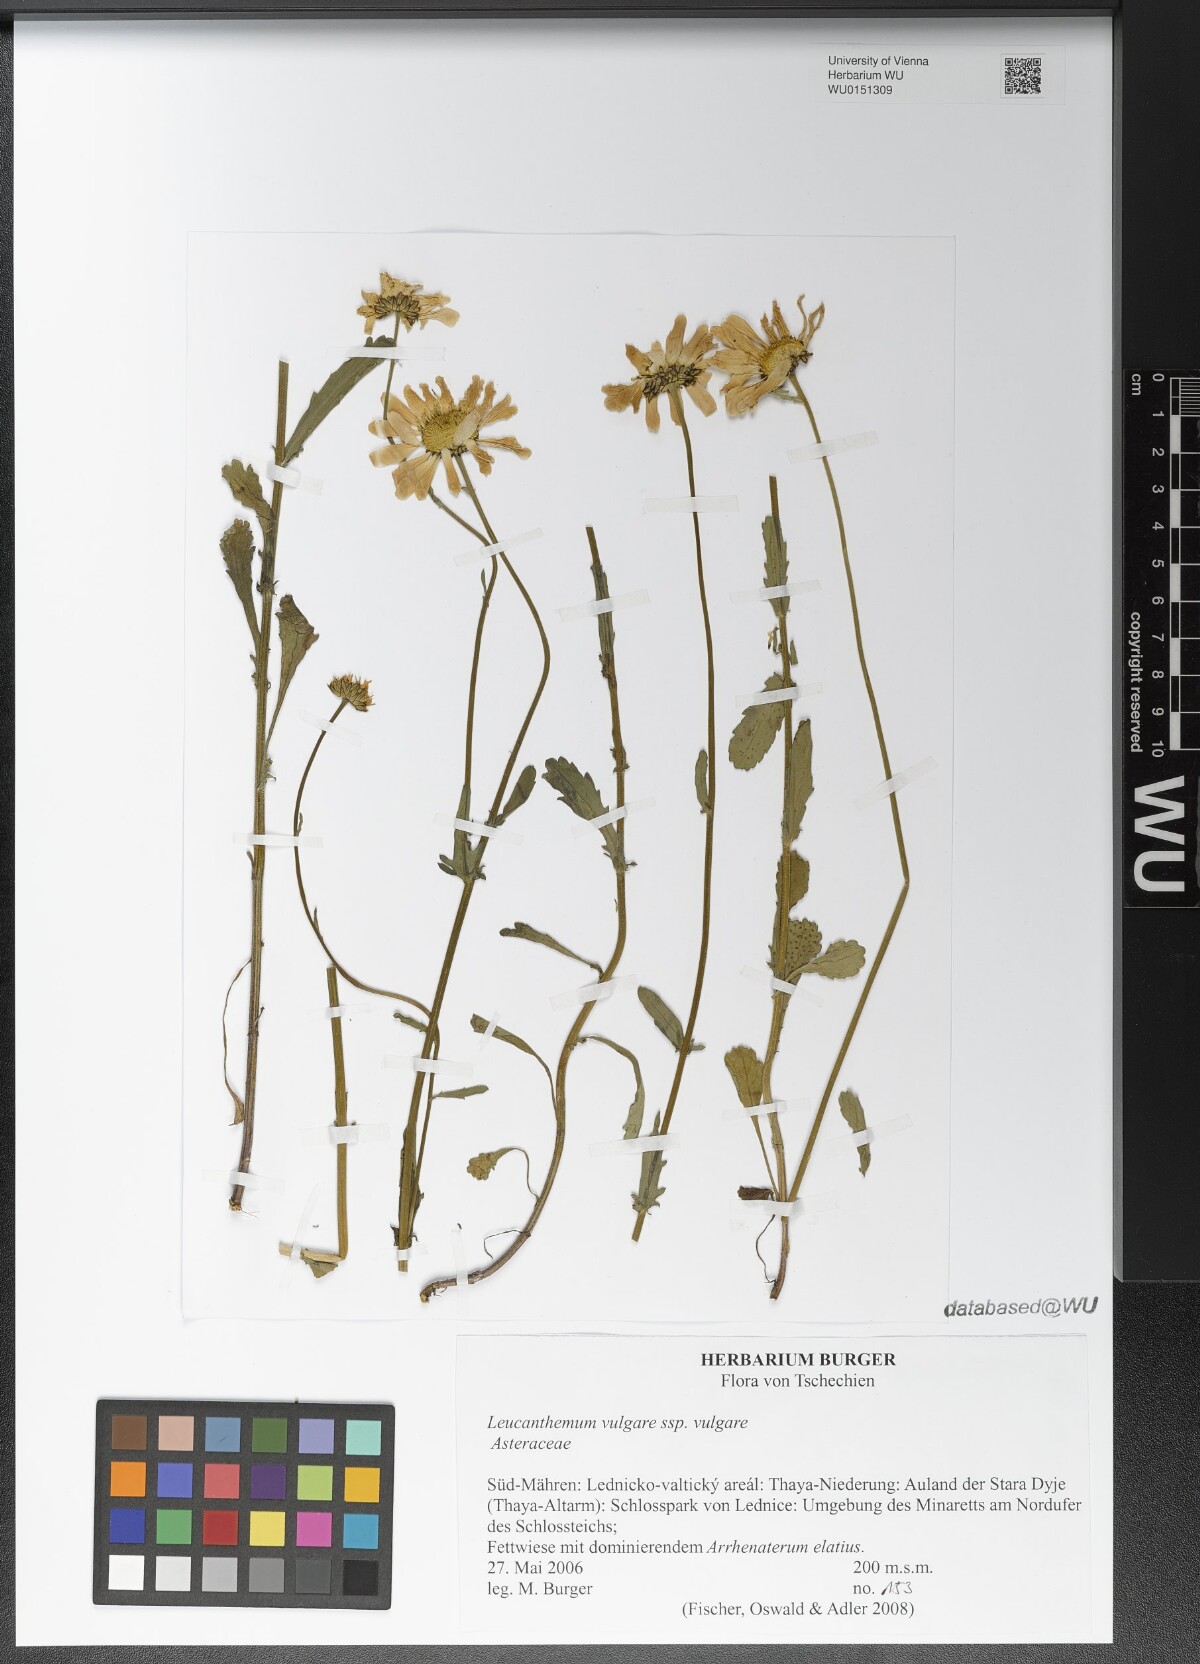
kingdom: Plantae
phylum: Tracheophyta
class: Magnoliopsida
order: Asterales
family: Asteraceae
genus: Leucanthemum
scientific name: Leucanthemum vulgare
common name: Oxeye daisy
